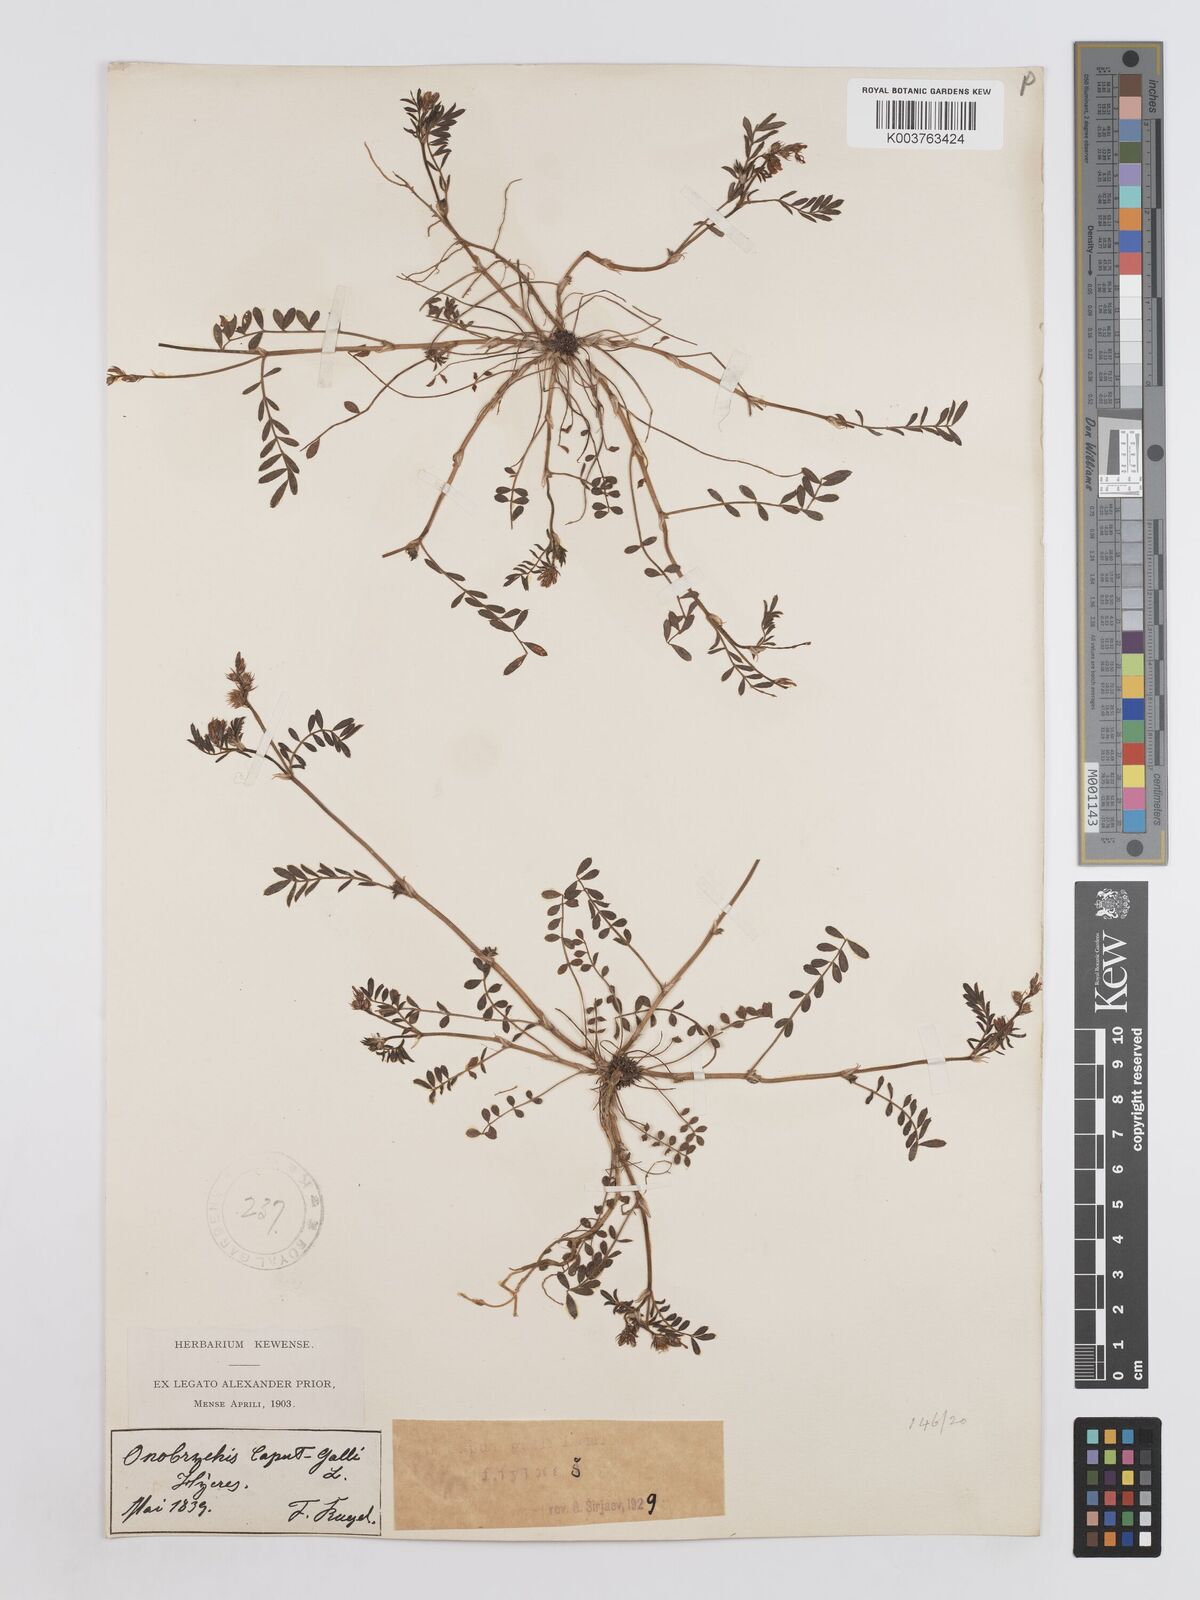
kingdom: Plantae
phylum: Tracheophyta
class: Magnoliopsida
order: Fabales
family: Fabaceae
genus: Onobrychis
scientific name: Onobrychis caput-galli
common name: Cockscomb sainfoin
